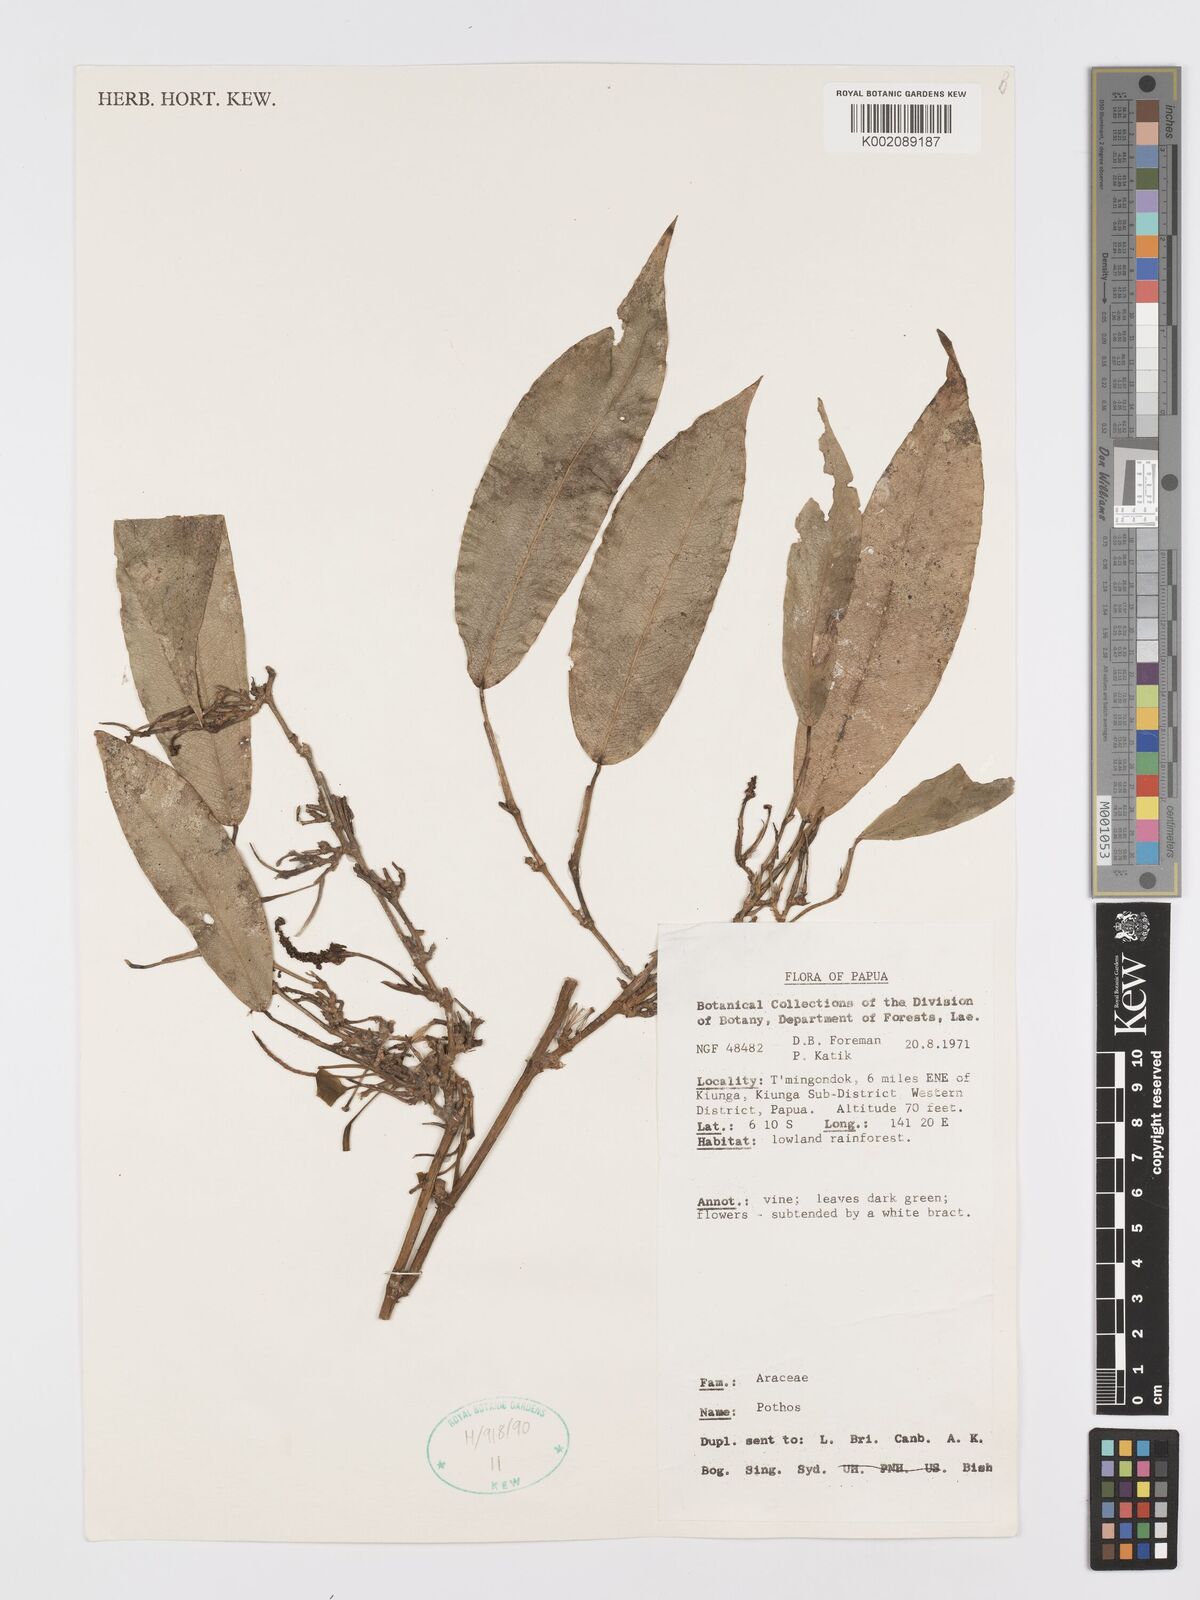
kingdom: Plantae
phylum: Tracheophyta
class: Liliopsida
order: Alismatales
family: Araceae
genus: Pothos
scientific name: Pothos
